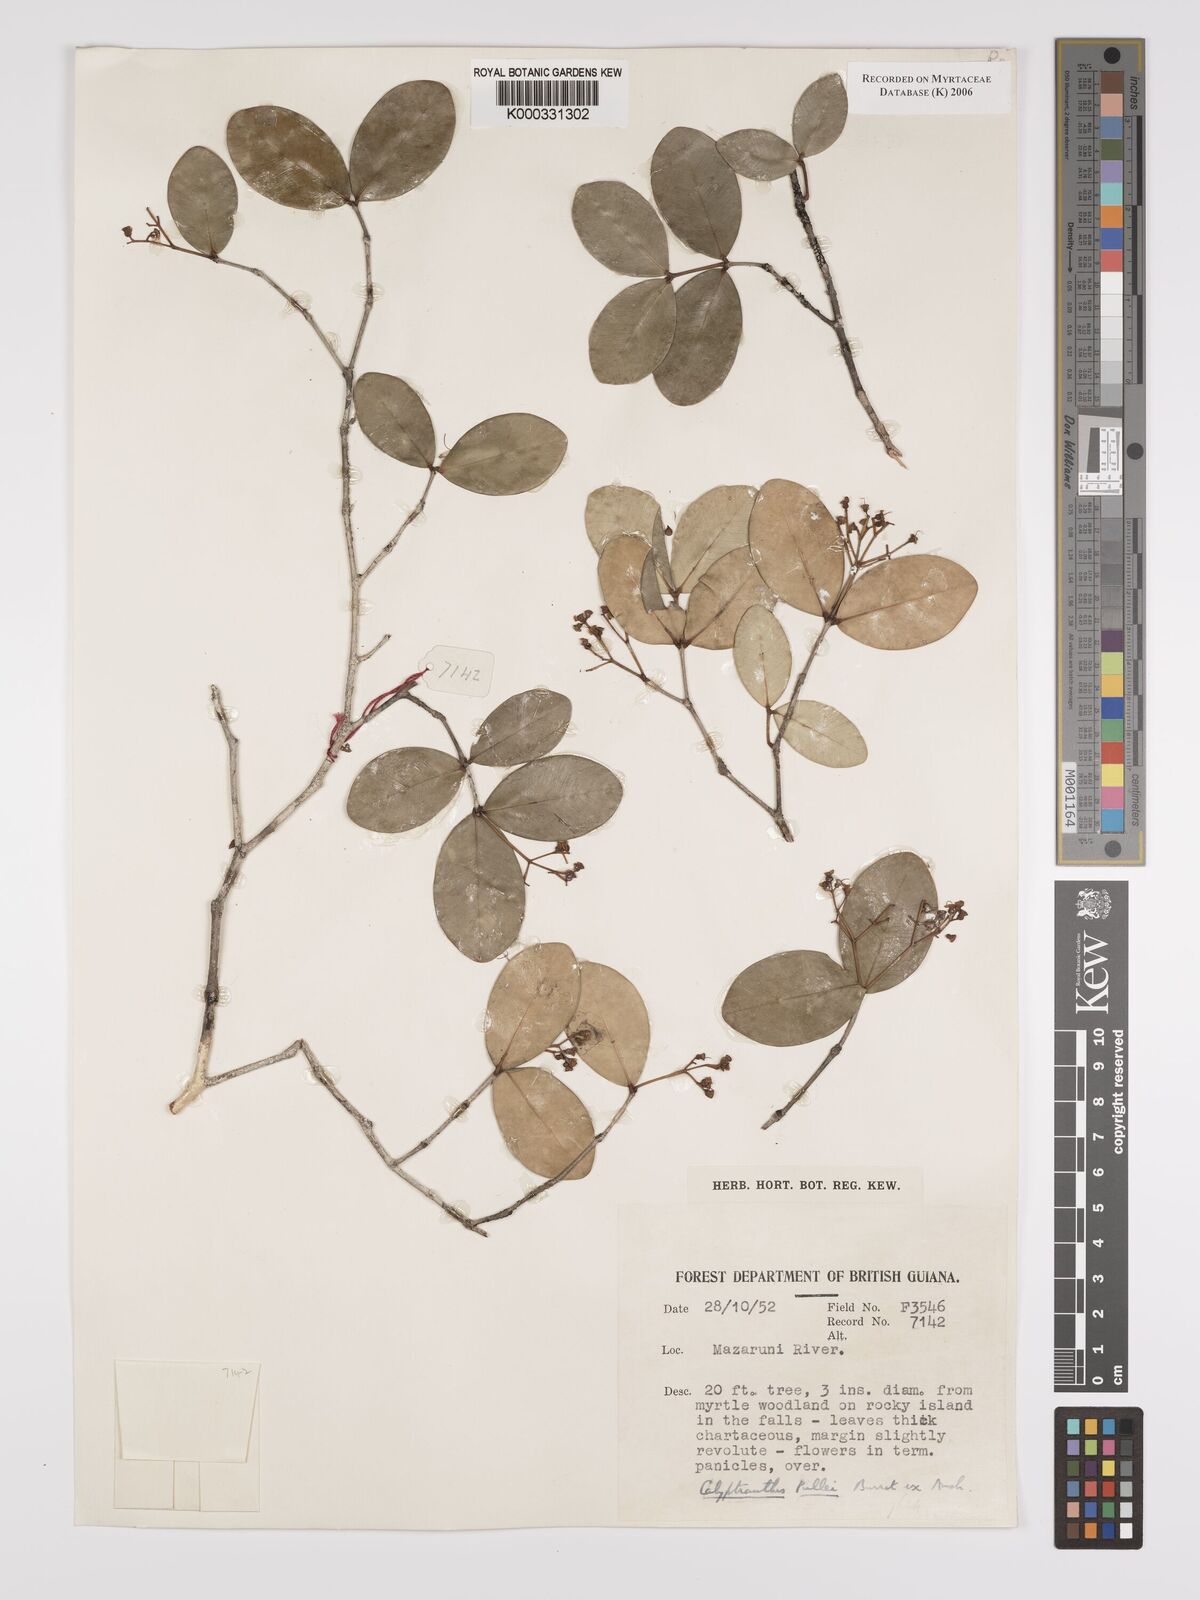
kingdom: Plantae
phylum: Tracheophyta
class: Magnoliopsida
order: Myrtales
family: Myrtaceae
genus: Myrcia
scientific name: Myrcia pullei
